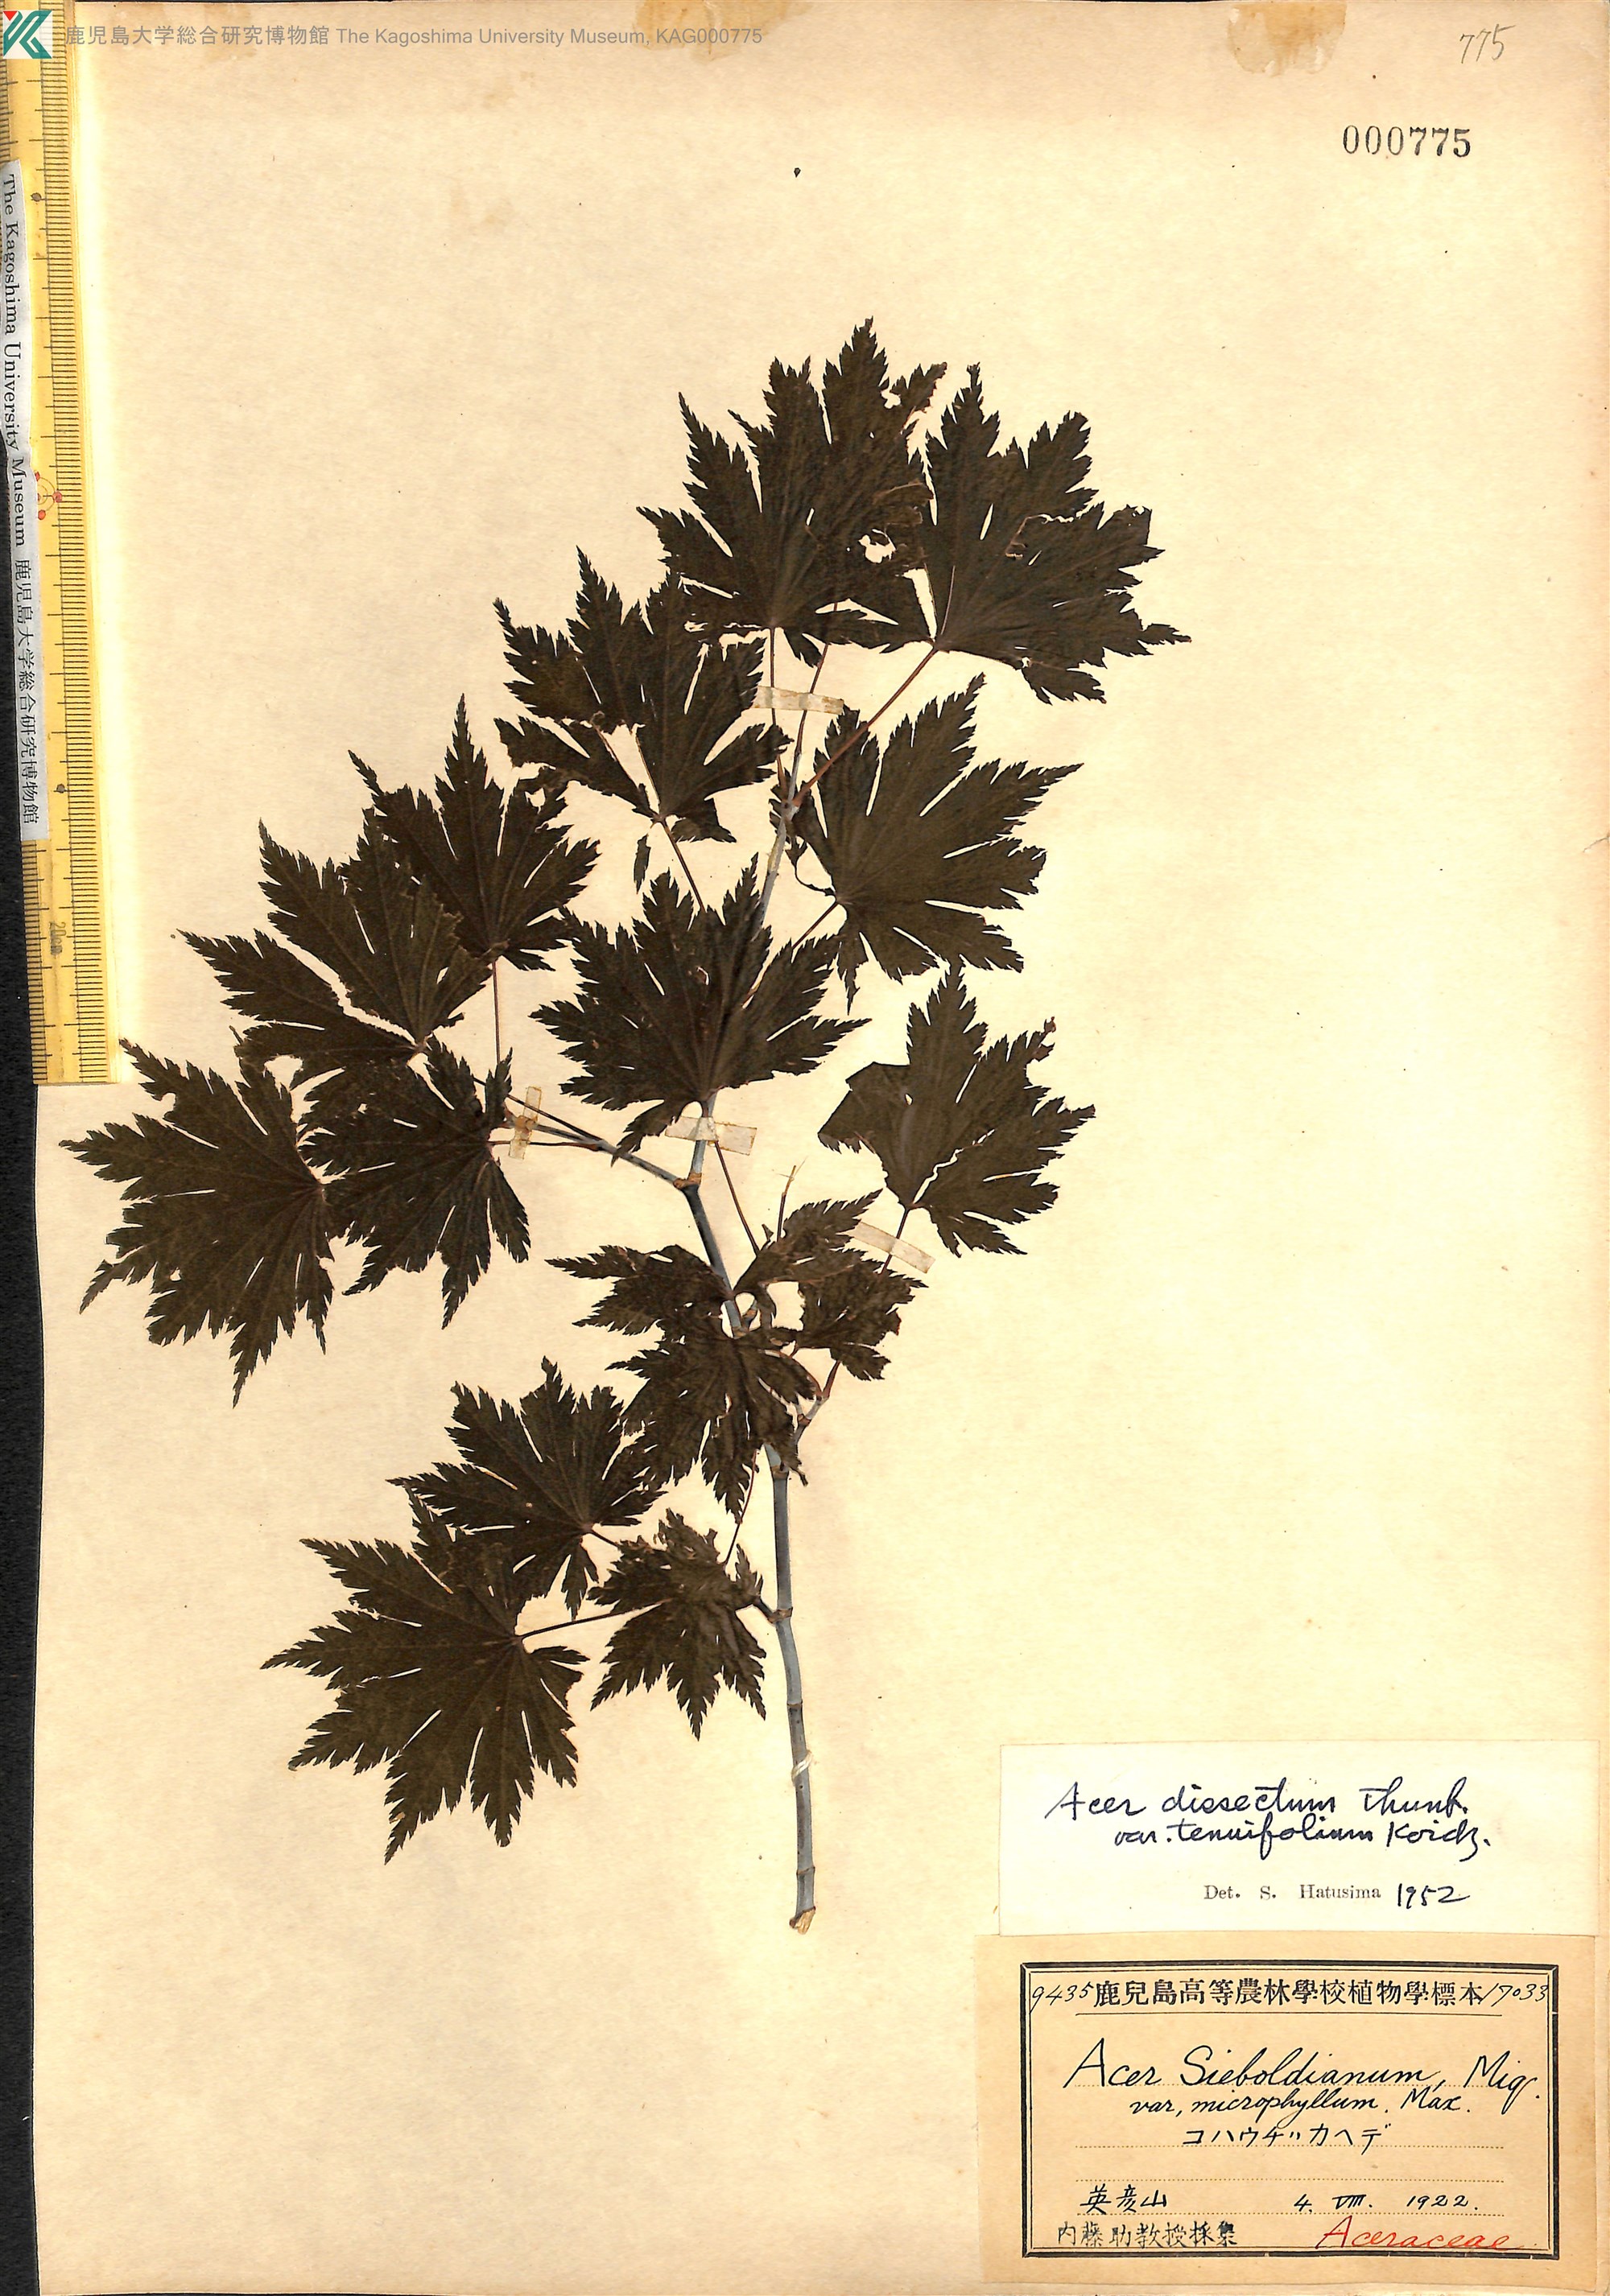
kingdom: Plantae
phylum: Tracheophyta
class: Magnoliopsida
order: Sapindales
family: Sapindaceae
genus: Acer
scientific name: Acer shirasawanum
